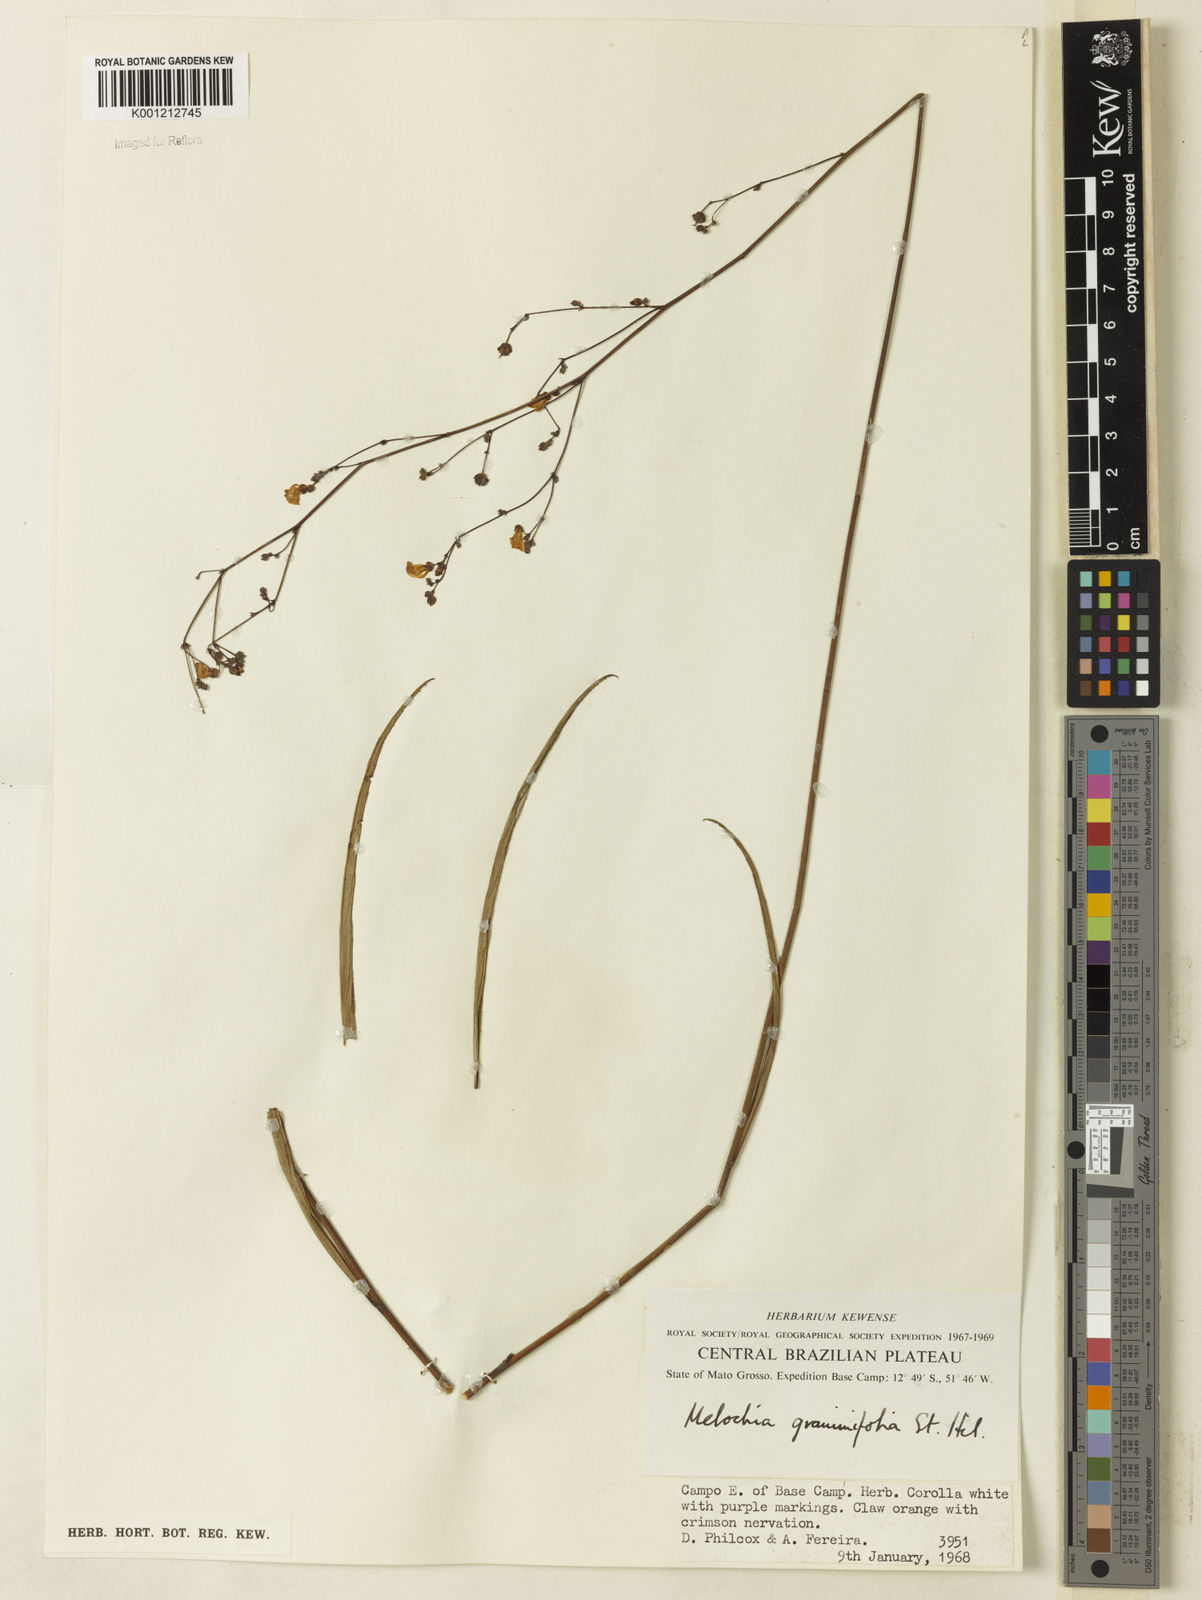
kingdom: Plantae
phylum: Tracheophyta
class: Magnoliopsida
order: Malvales
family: Malvaceae
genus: Melochia
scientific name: Melochia graminifolia
